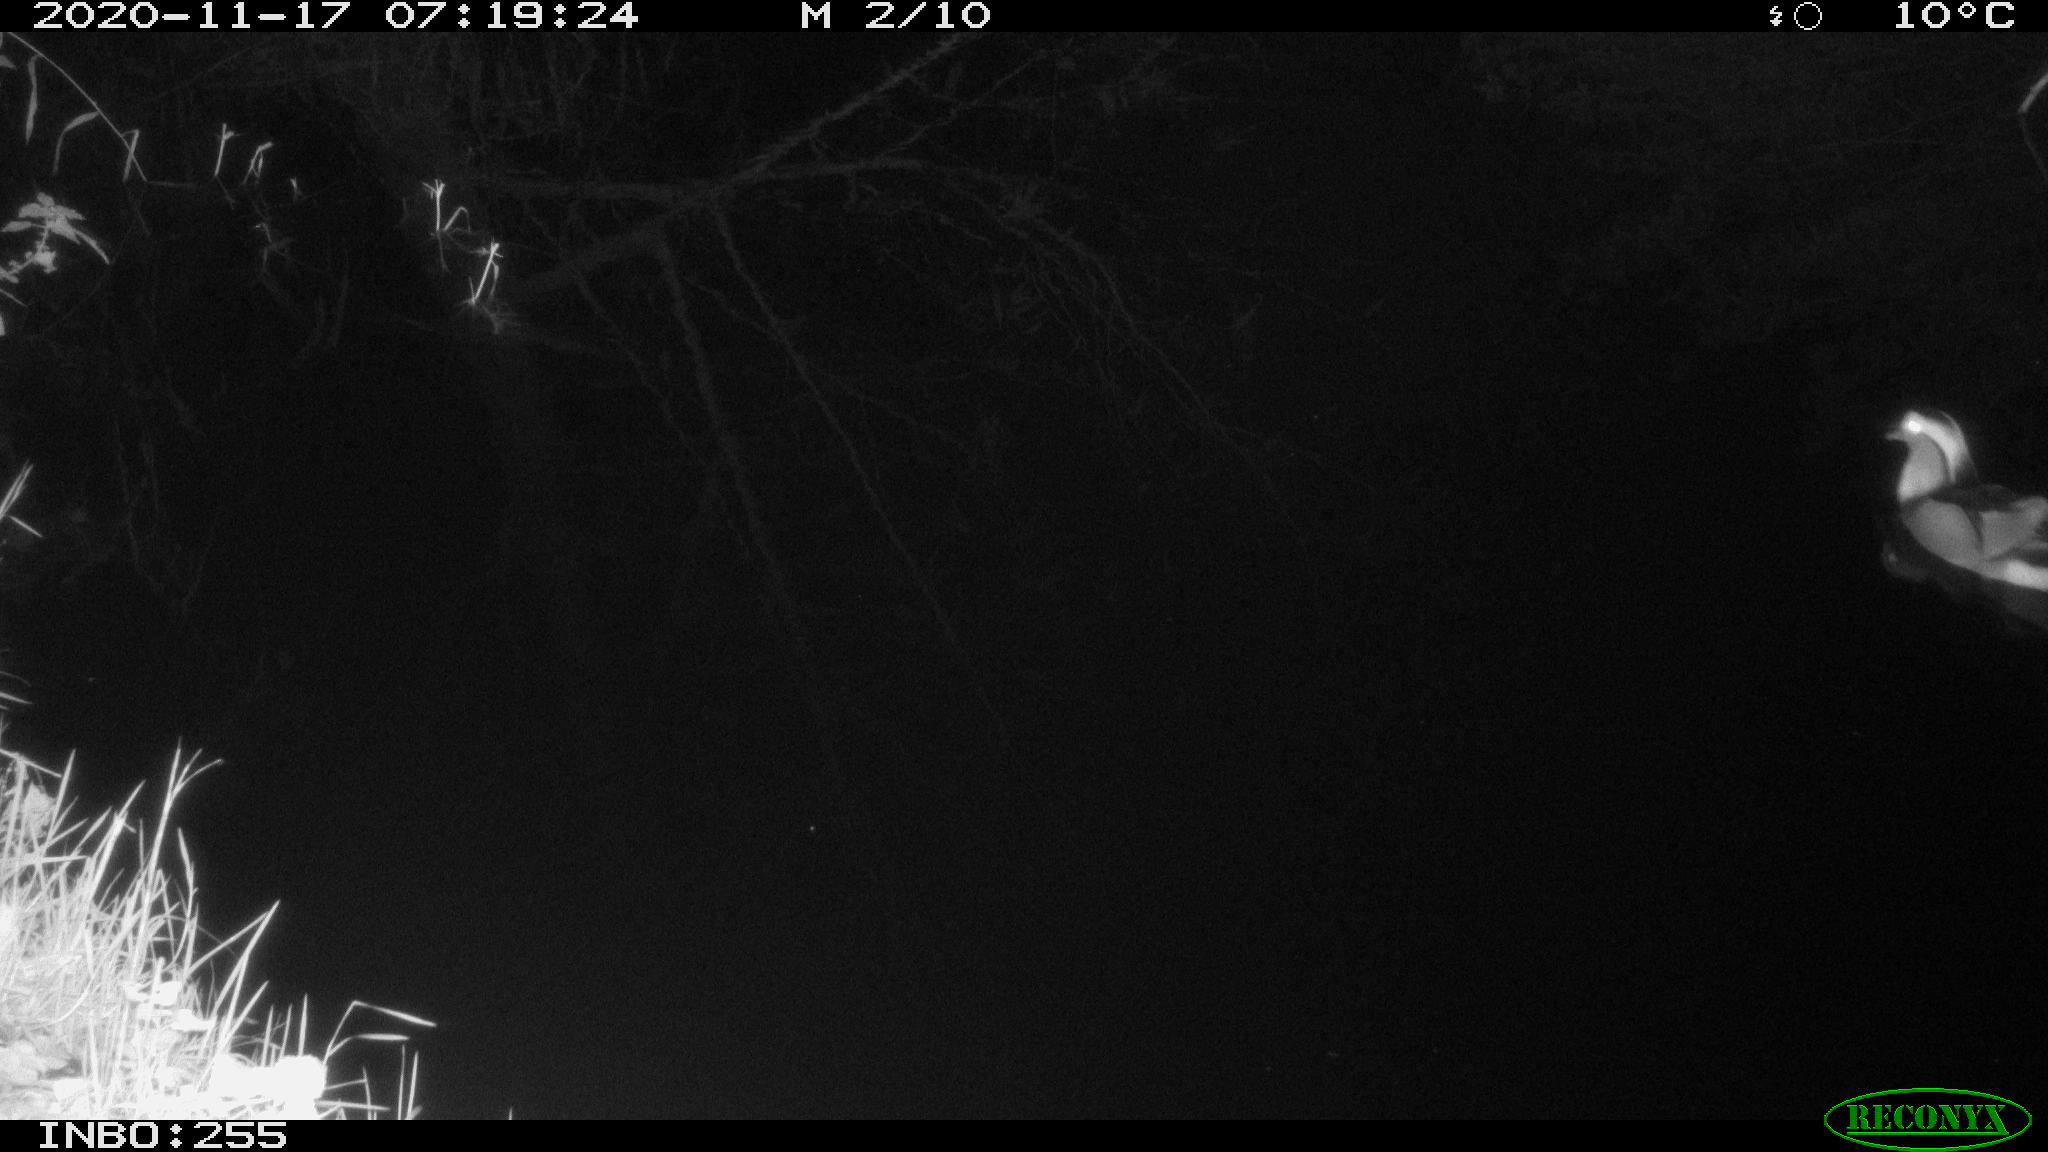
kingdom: Animalia
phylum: Chordata
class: Aves
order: Anseriformes
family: Anatidae
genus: Aix
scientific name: Aix galericulata
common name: Mandarin duck
